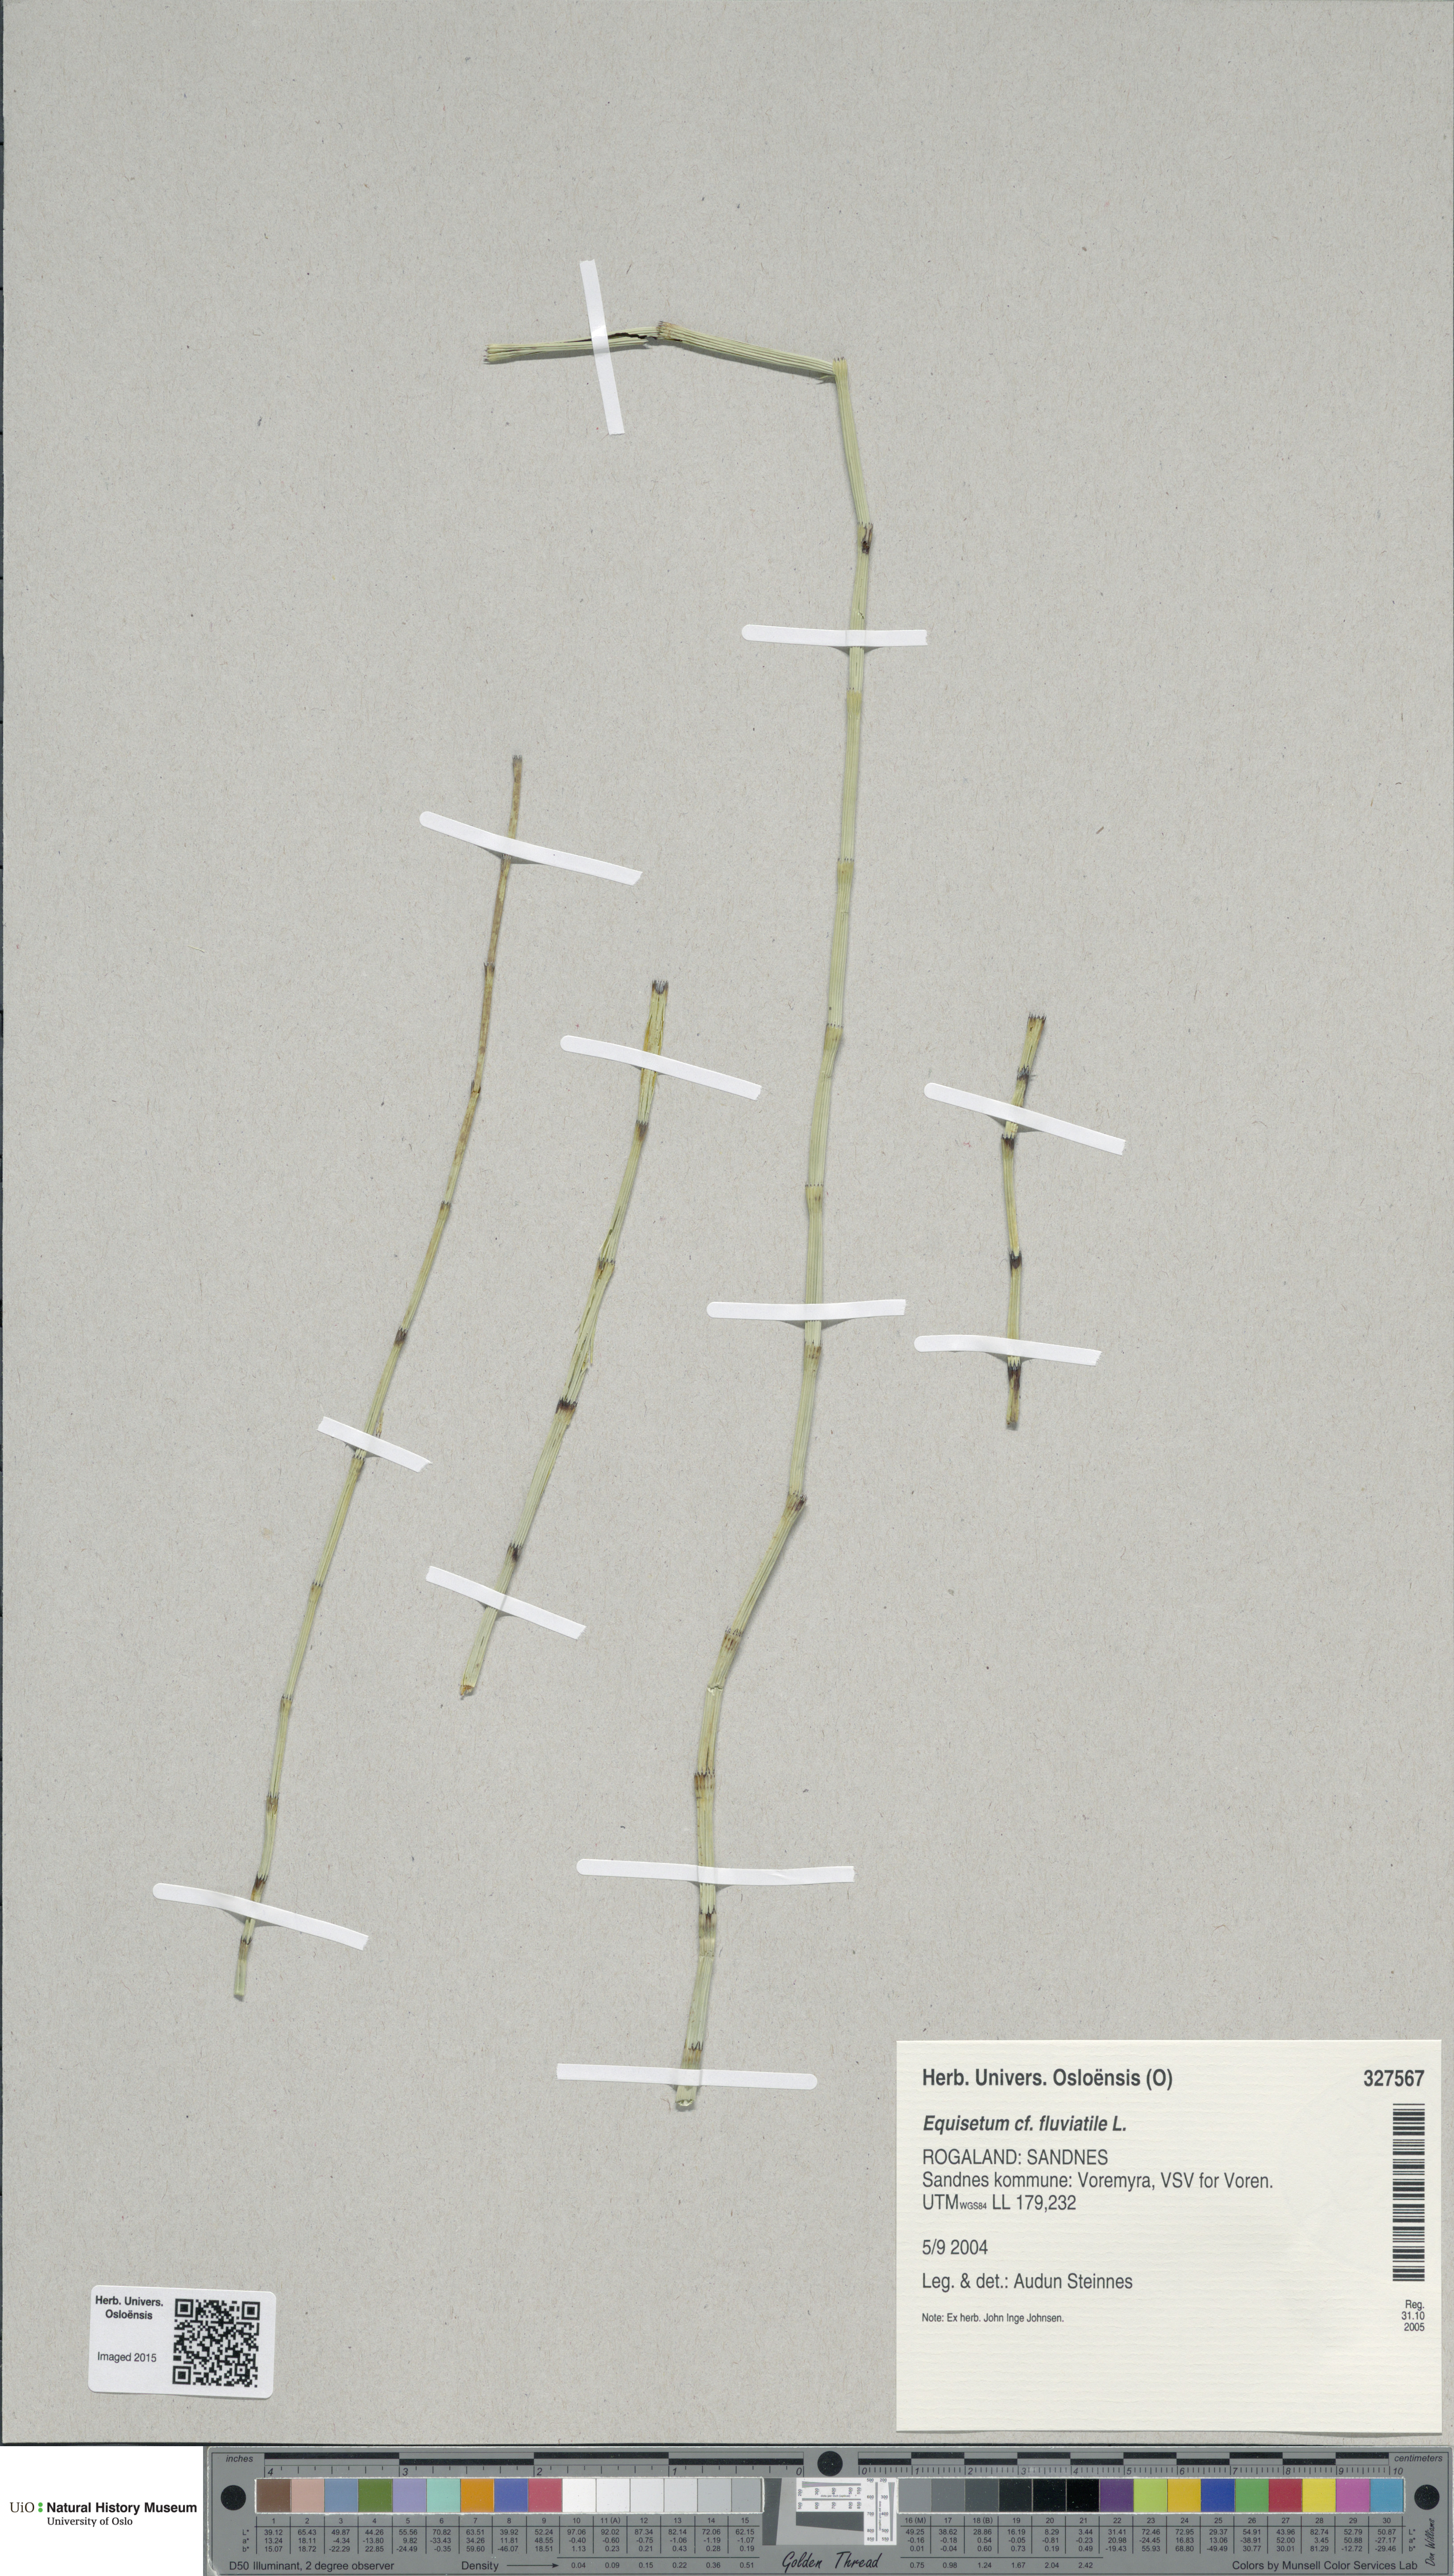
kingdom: Plantae
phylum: Tracheophyta
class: Polypodiopsida
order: Equisetales
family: Equisetaceae
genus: Equisetum
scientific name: Equisetum fluviatile
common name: Water horsetail
